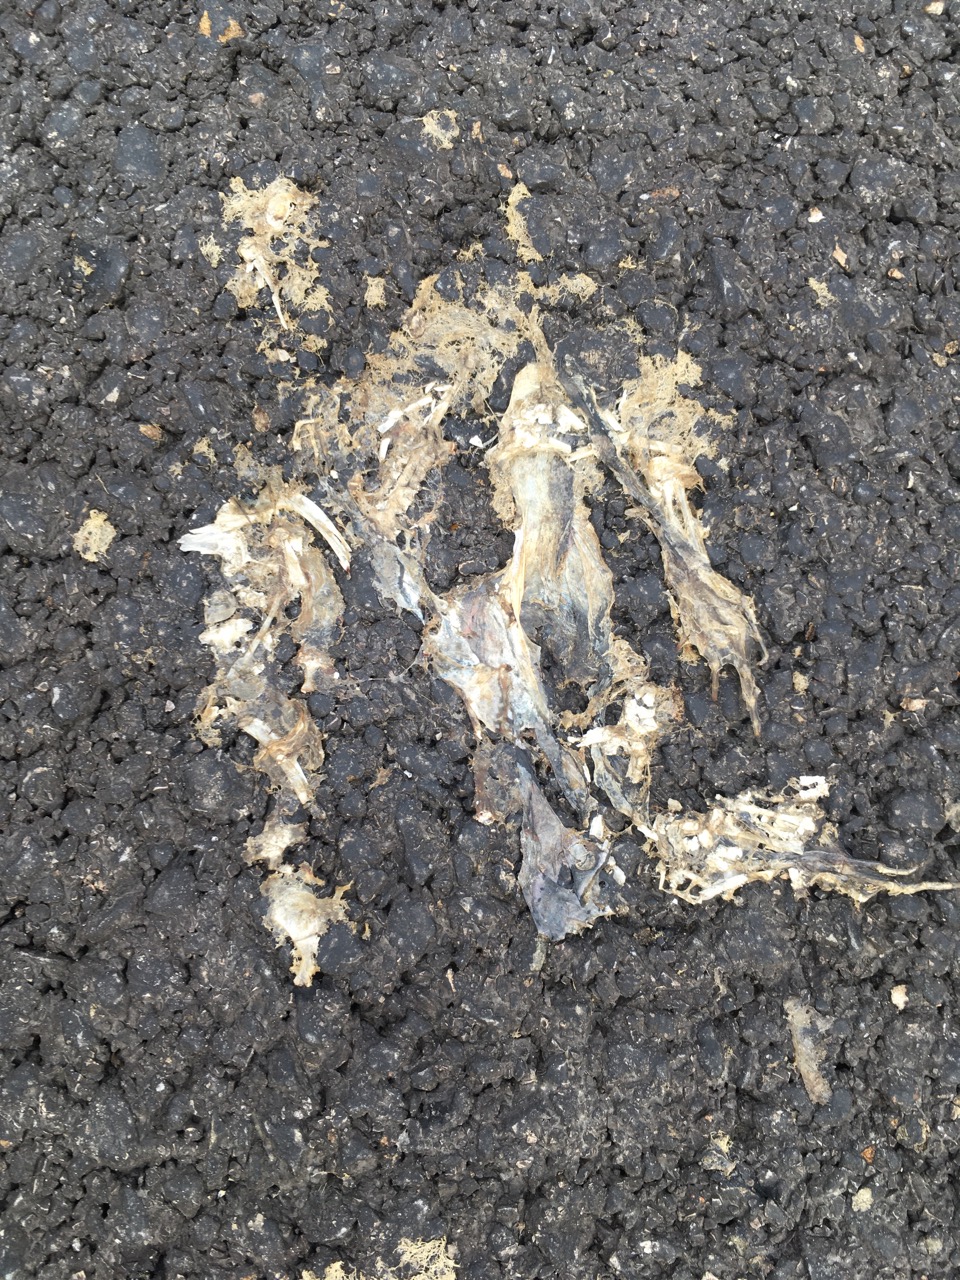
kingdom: Animalia
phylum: Chordata
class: Amphibia
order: Anura
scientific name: Anura
